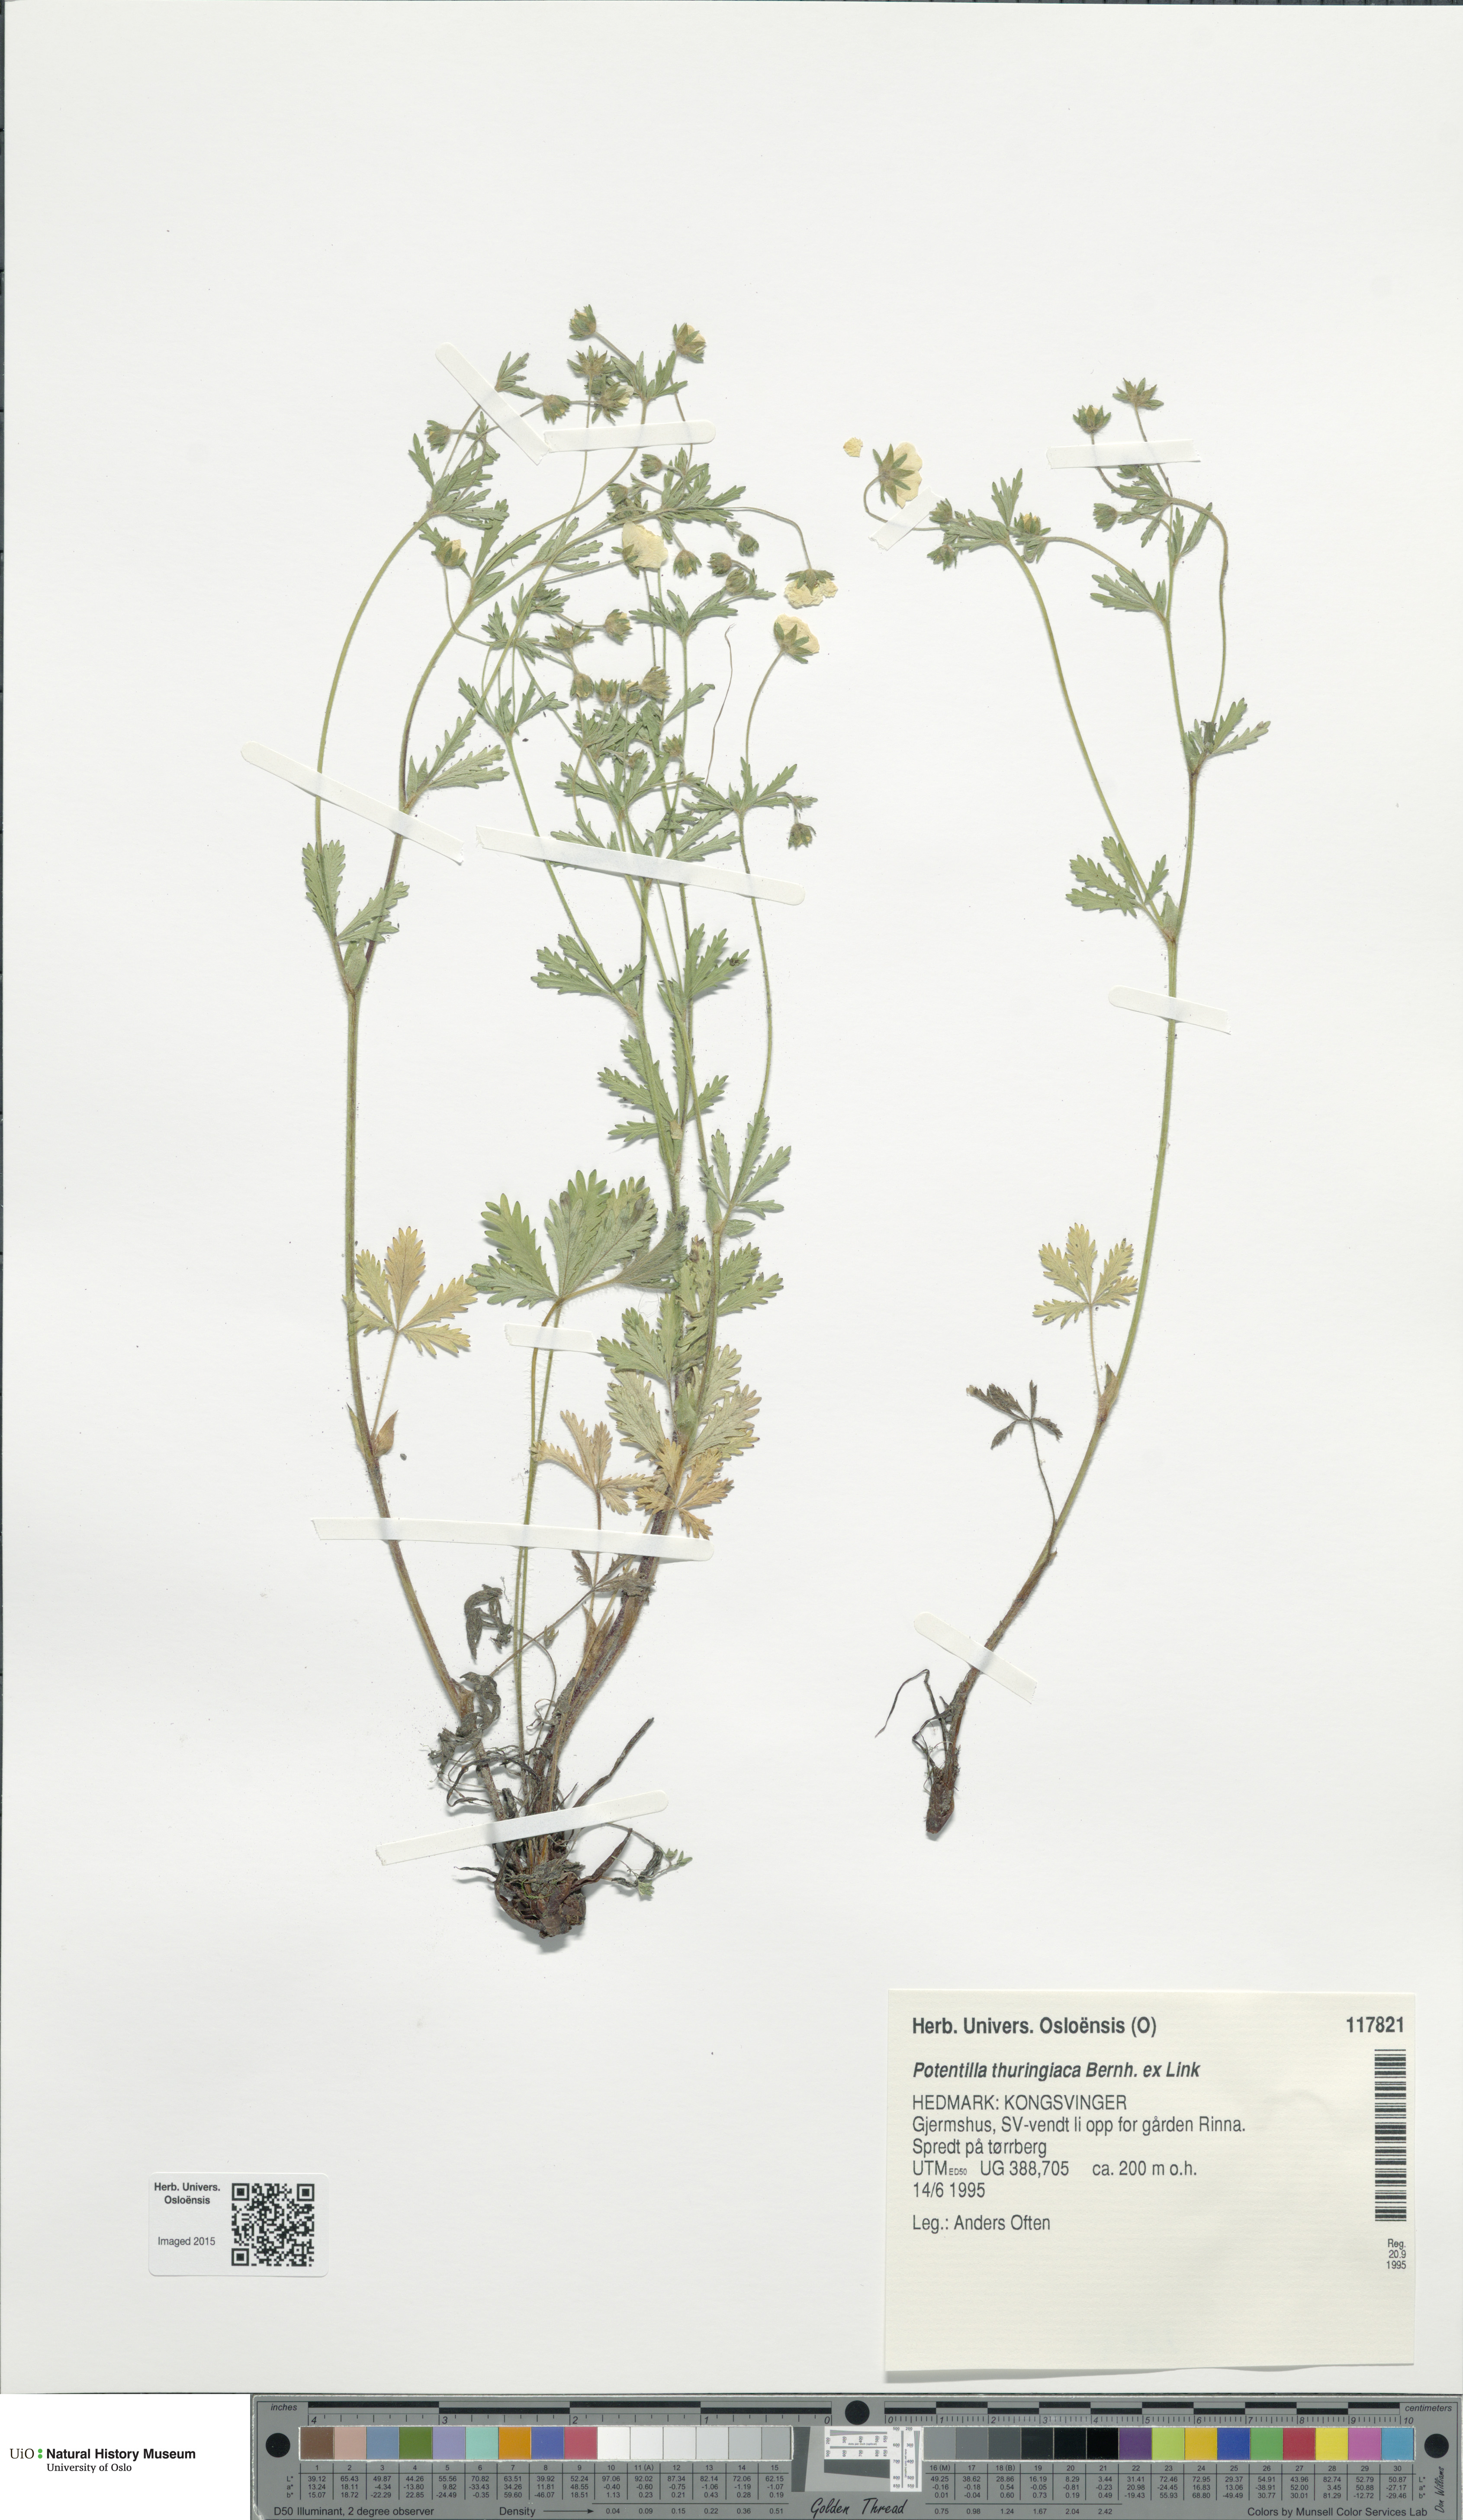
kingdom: Plantae
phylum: Tracheophyta
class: Magnoliopsida
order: Rosales
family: Rosaceae
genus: Potentilla
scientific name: Potentilla thuringiaca
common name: European cinquefoil
